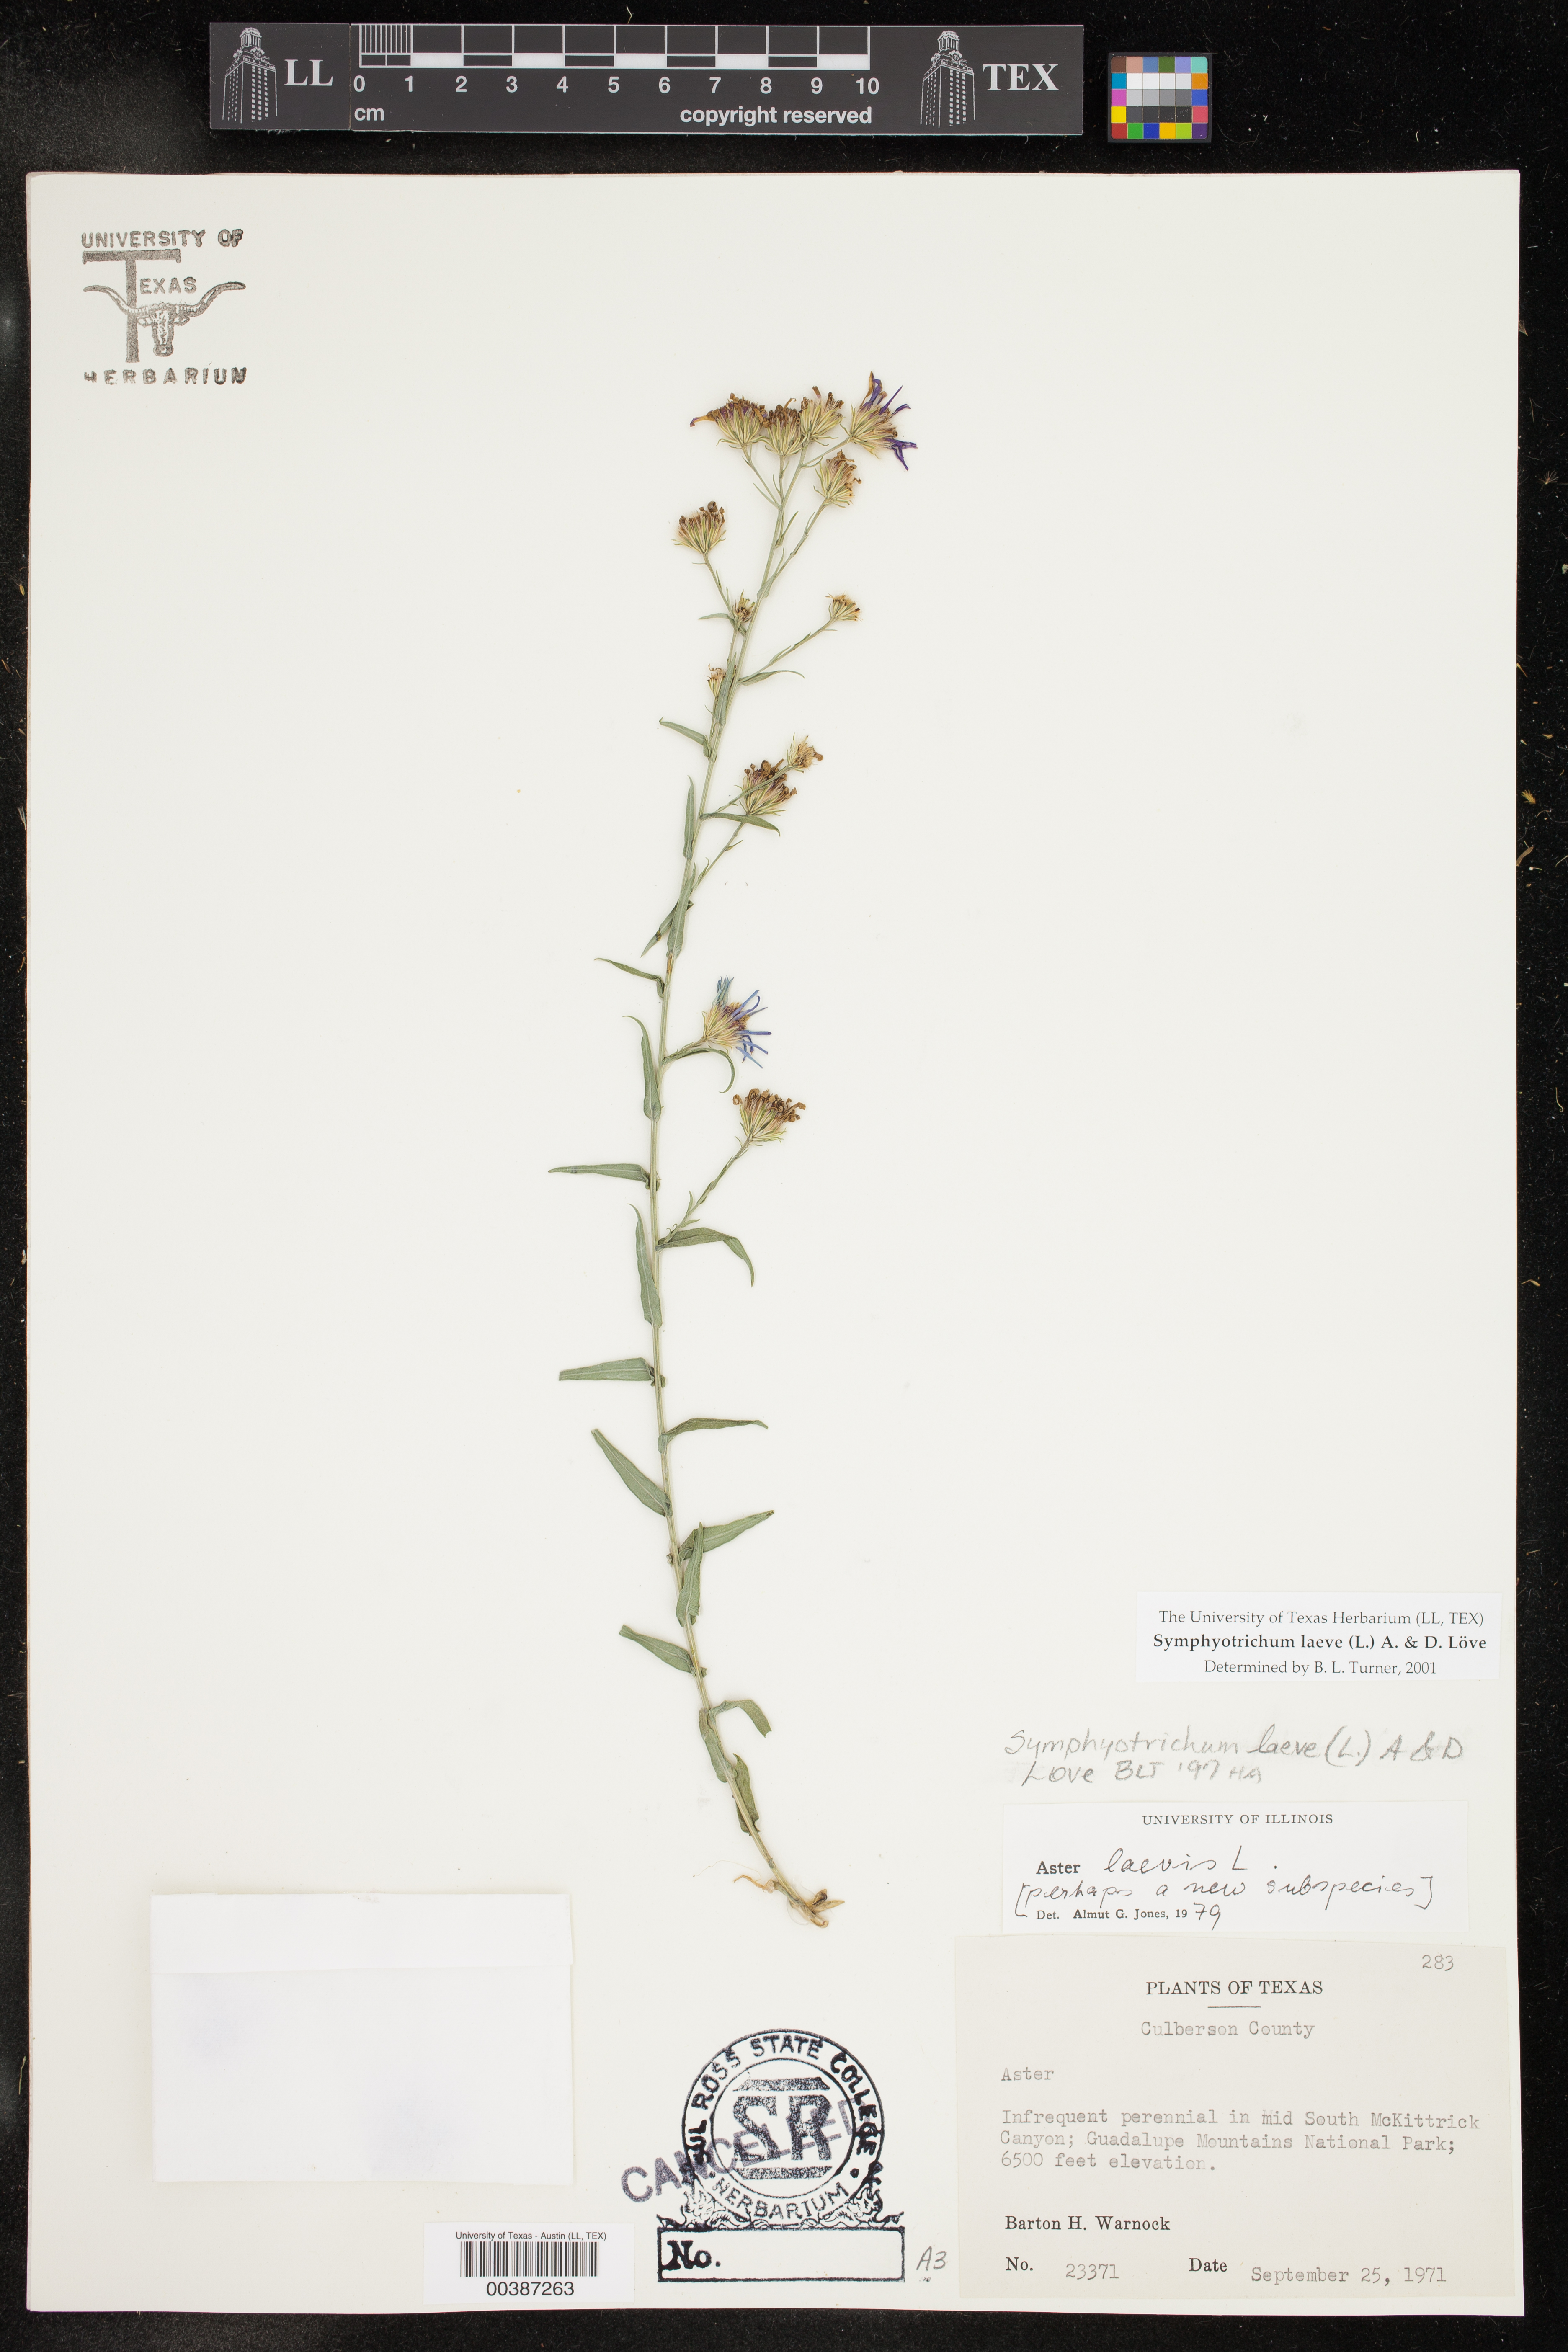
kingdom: Plantae
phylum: Tracheophyta
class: Magnoliopsida
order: Asterales
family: Asteraceae
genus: Symphyotrichum
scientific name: Symphyotrichum laeve
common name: Glaucous aster
